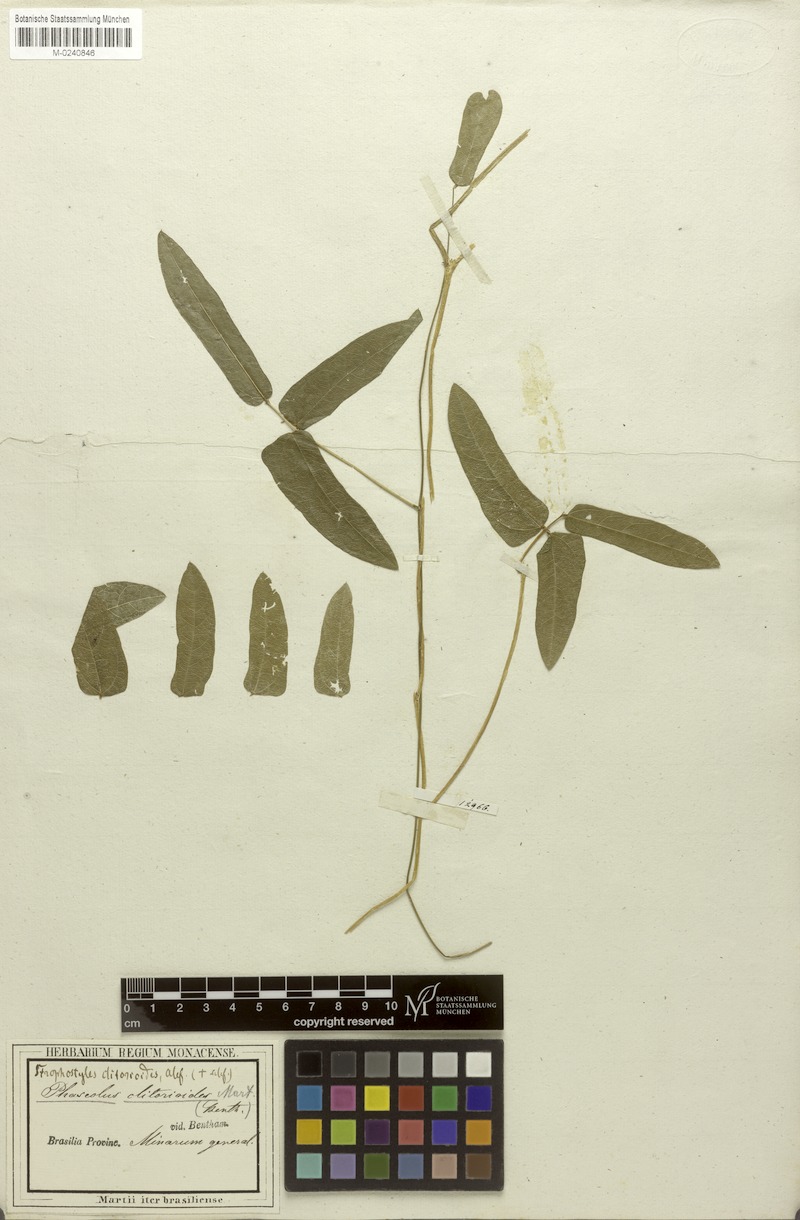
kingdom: Plantae
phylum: Tracheophyta
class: Magnoliopsida
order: Fabales
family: Fabaceae
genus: Ancistrotropis
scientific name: Ancistrotropis clitorioides
